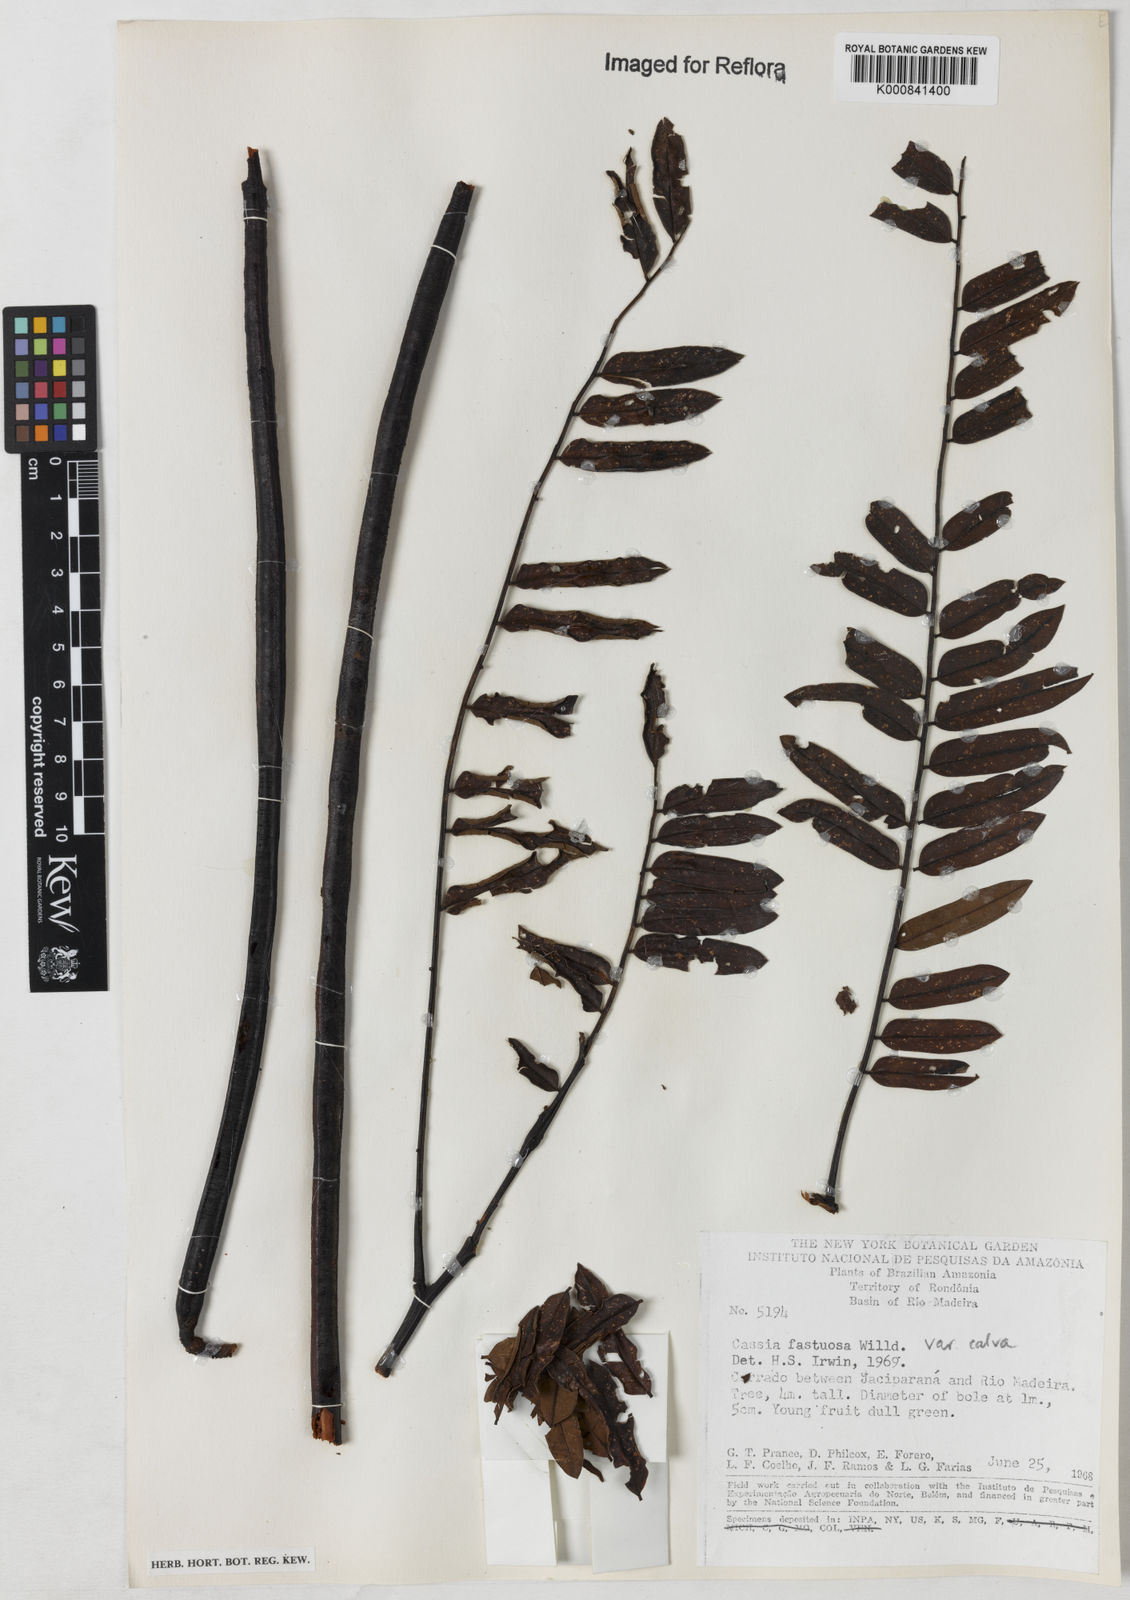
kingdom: Plantae
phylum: Tracheophyta
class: Magnoliopsida
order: Fabales
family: Fabaceae
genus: Cassia
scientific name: Cassia fastuosa
